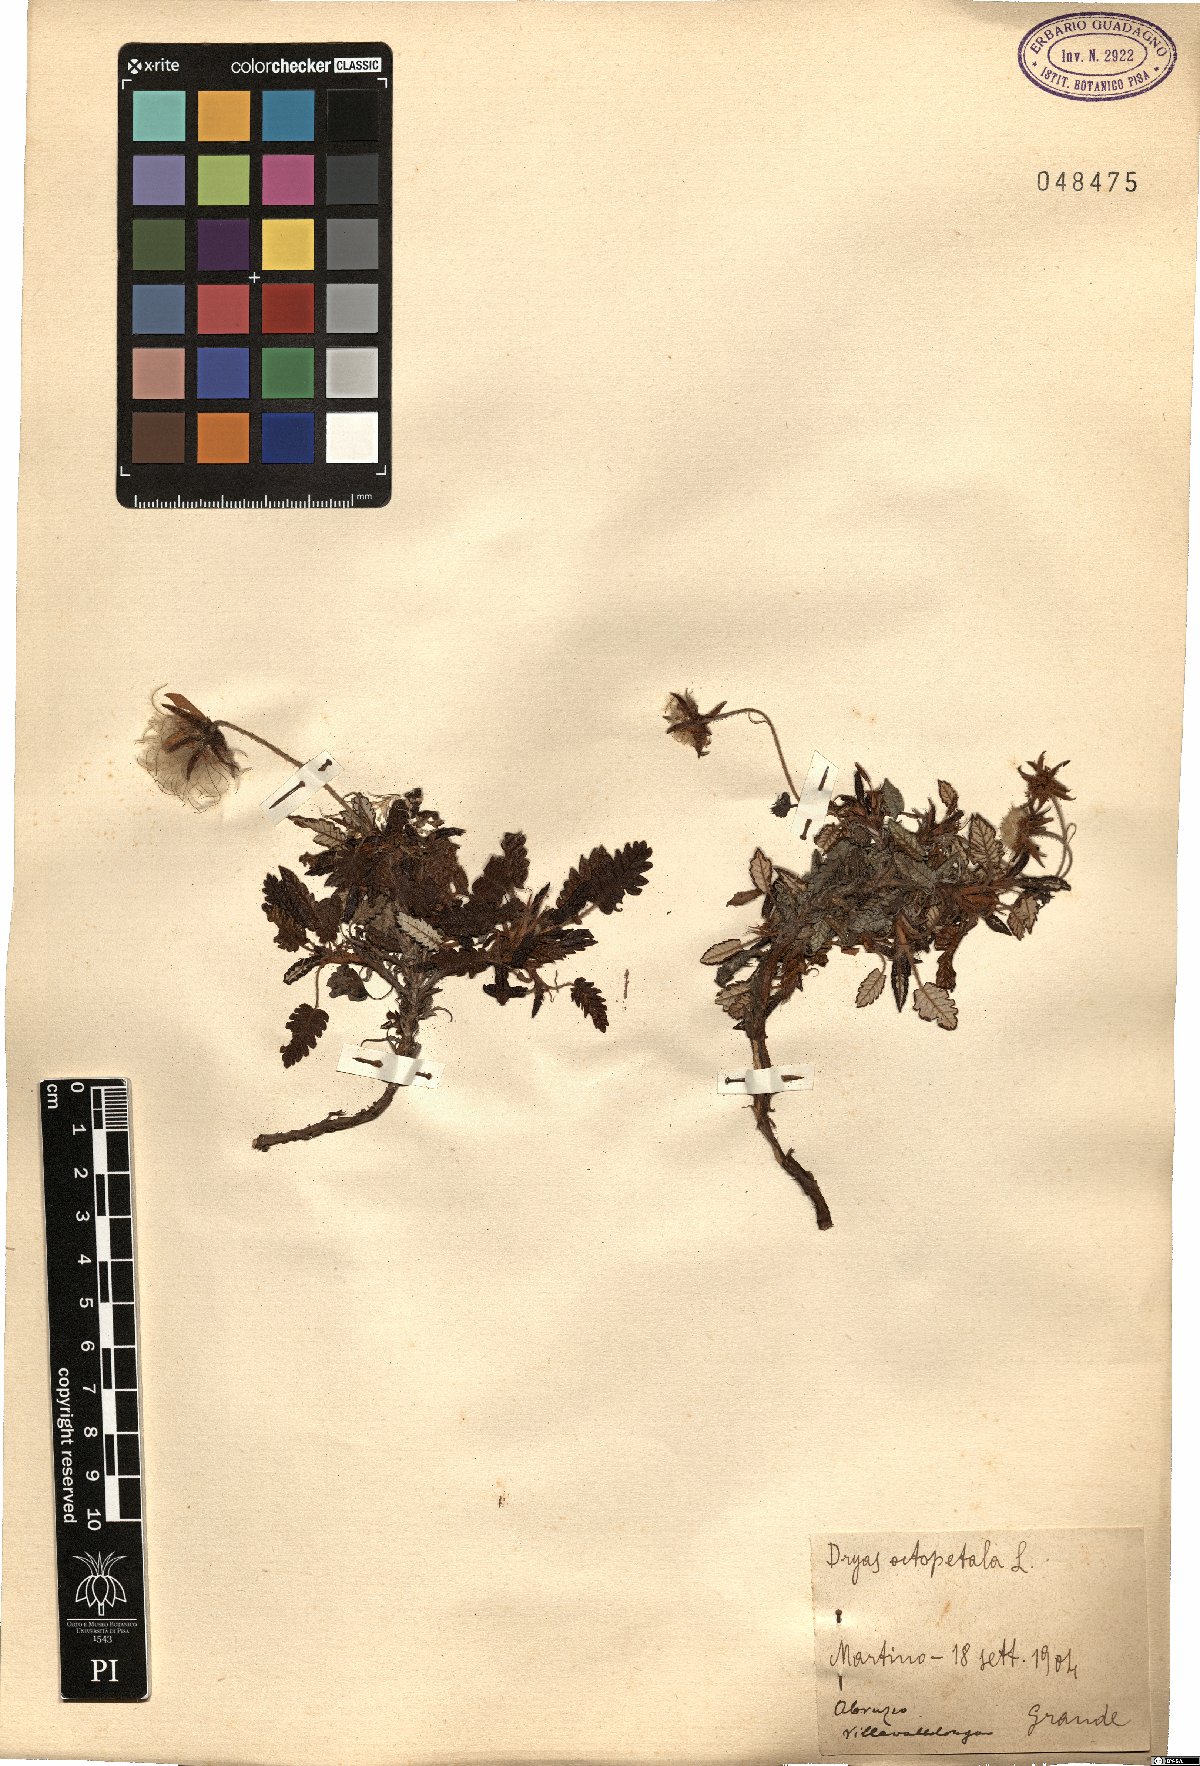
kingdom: Plantae
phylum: Tracheophyta
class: Magnoliopsida
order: Rosales
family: Rosaceae
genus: Dryas
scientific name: Dryas octopetala
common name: Eight-petal mountain-avens
